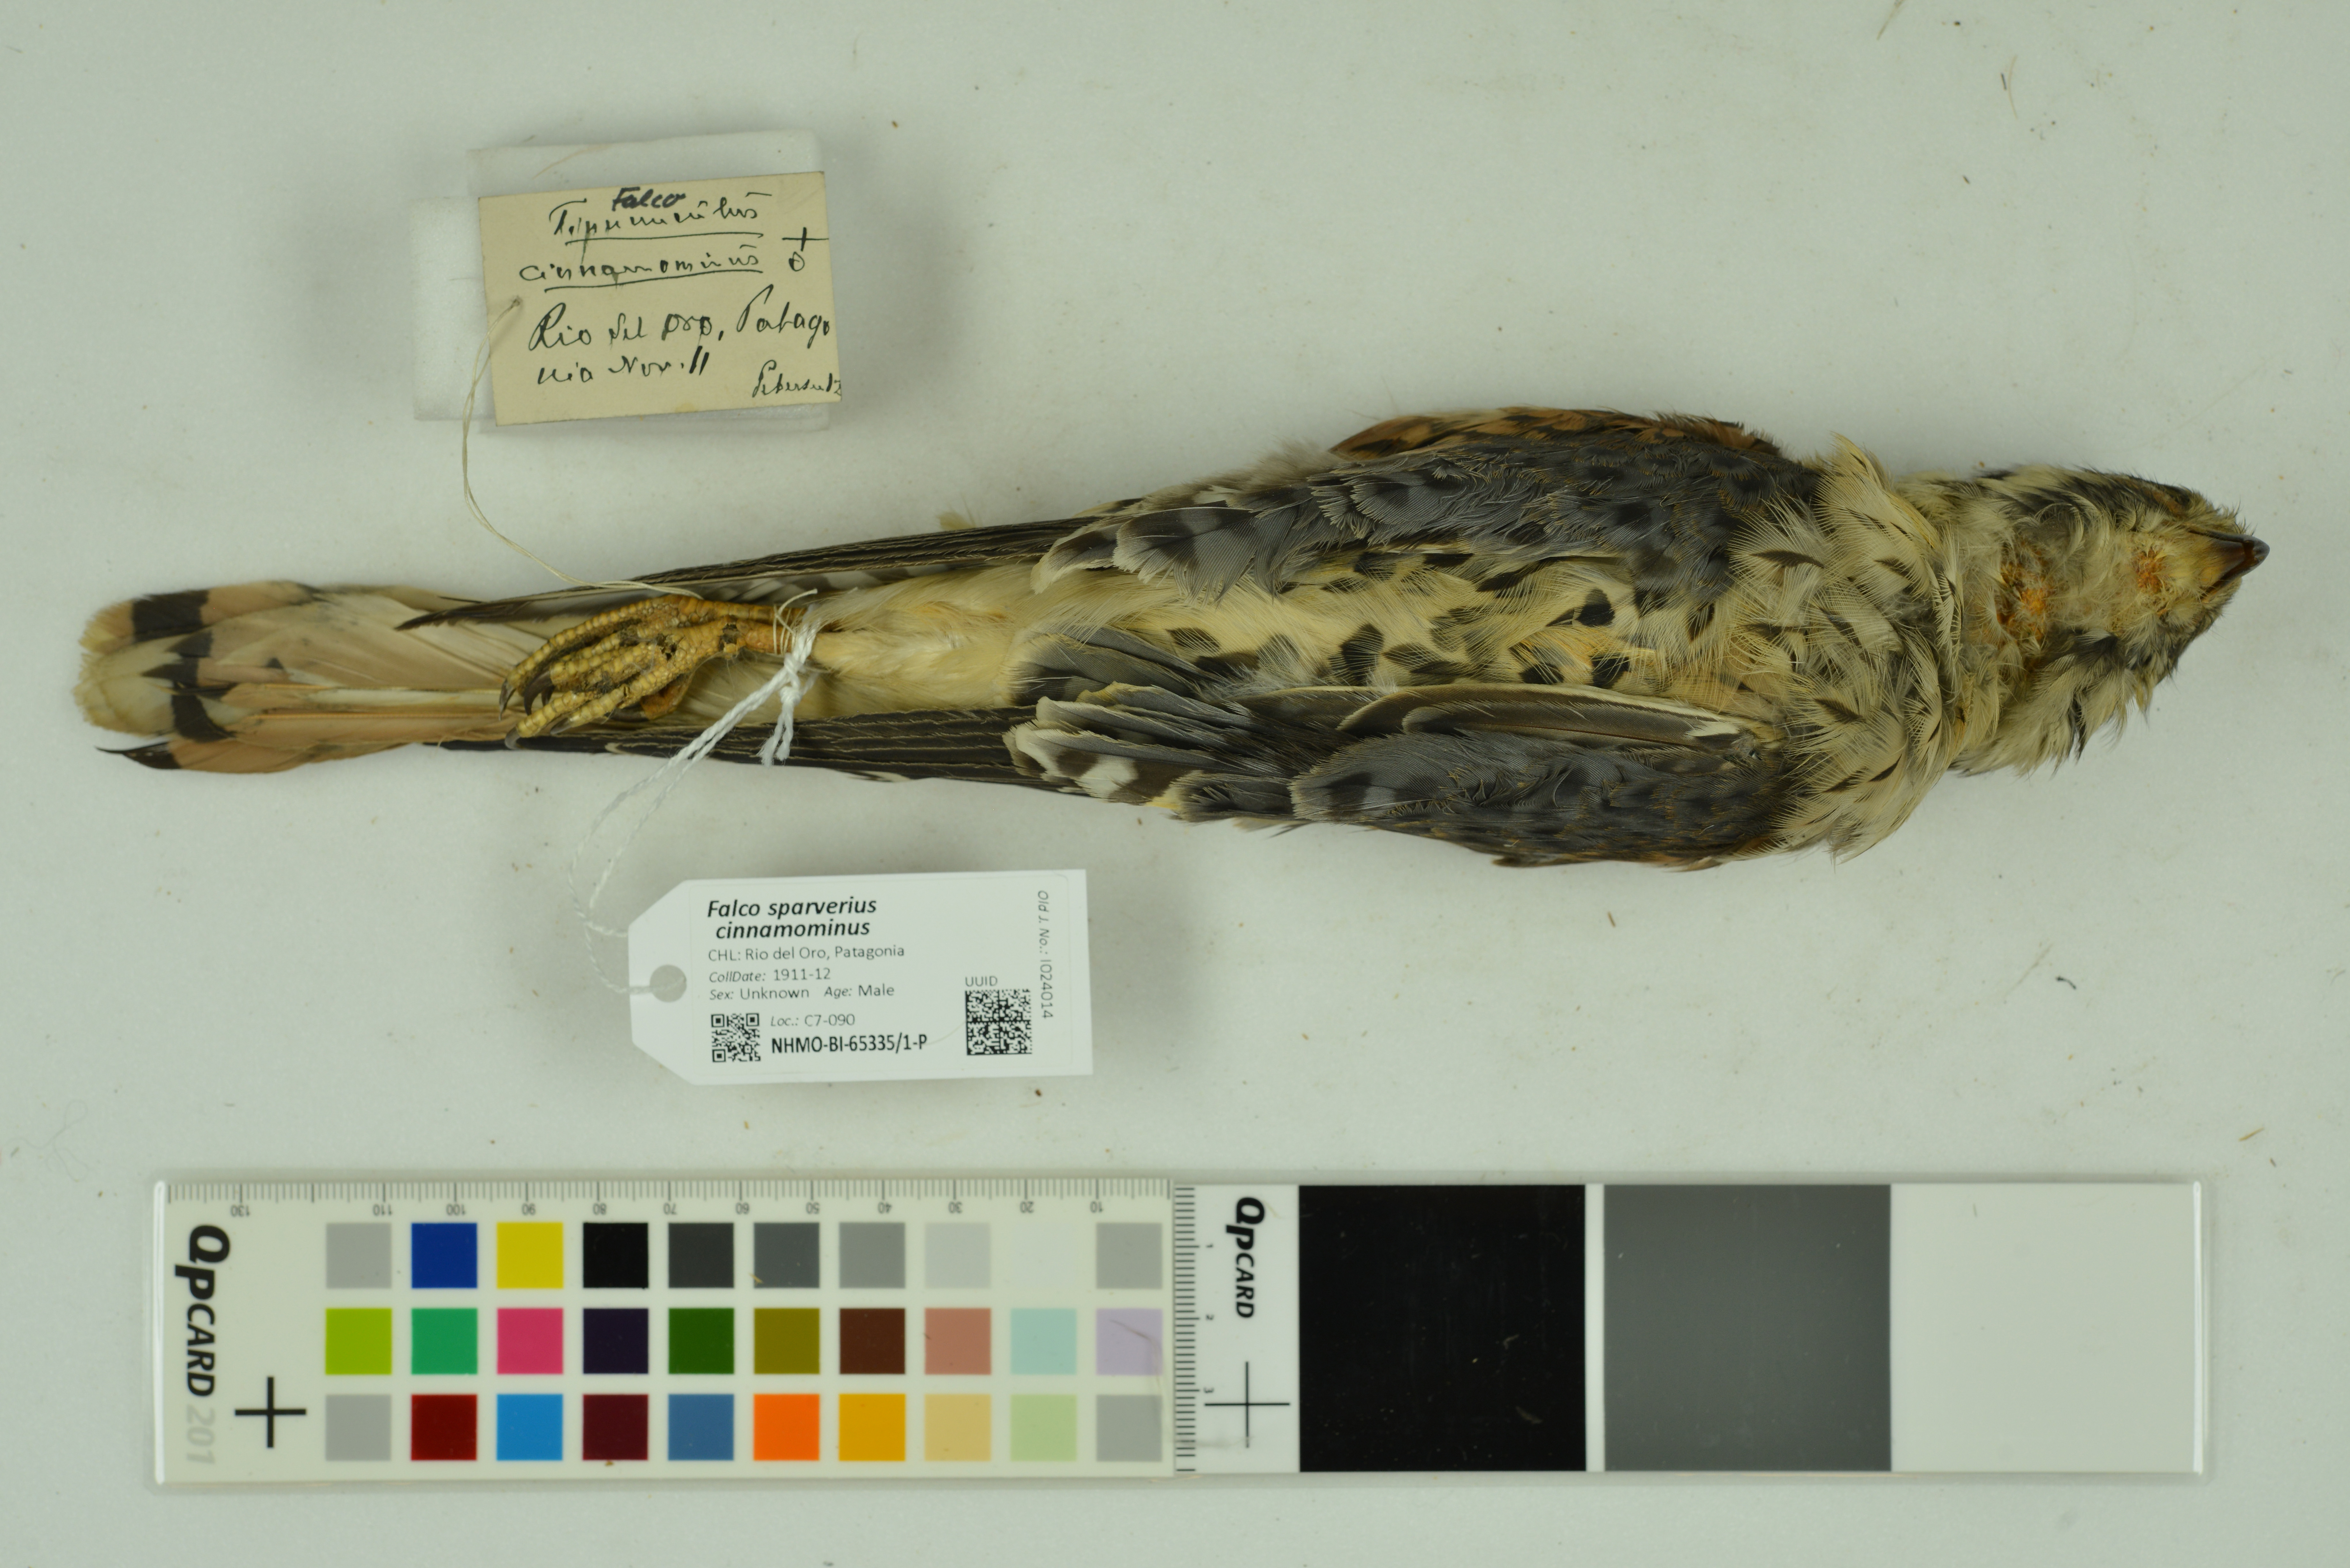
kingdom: Animalia
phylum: Chordata
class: Aves
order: Falconiformes
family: Falconidae
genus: Falco
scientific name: Falco sparverius
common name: American kestrel
